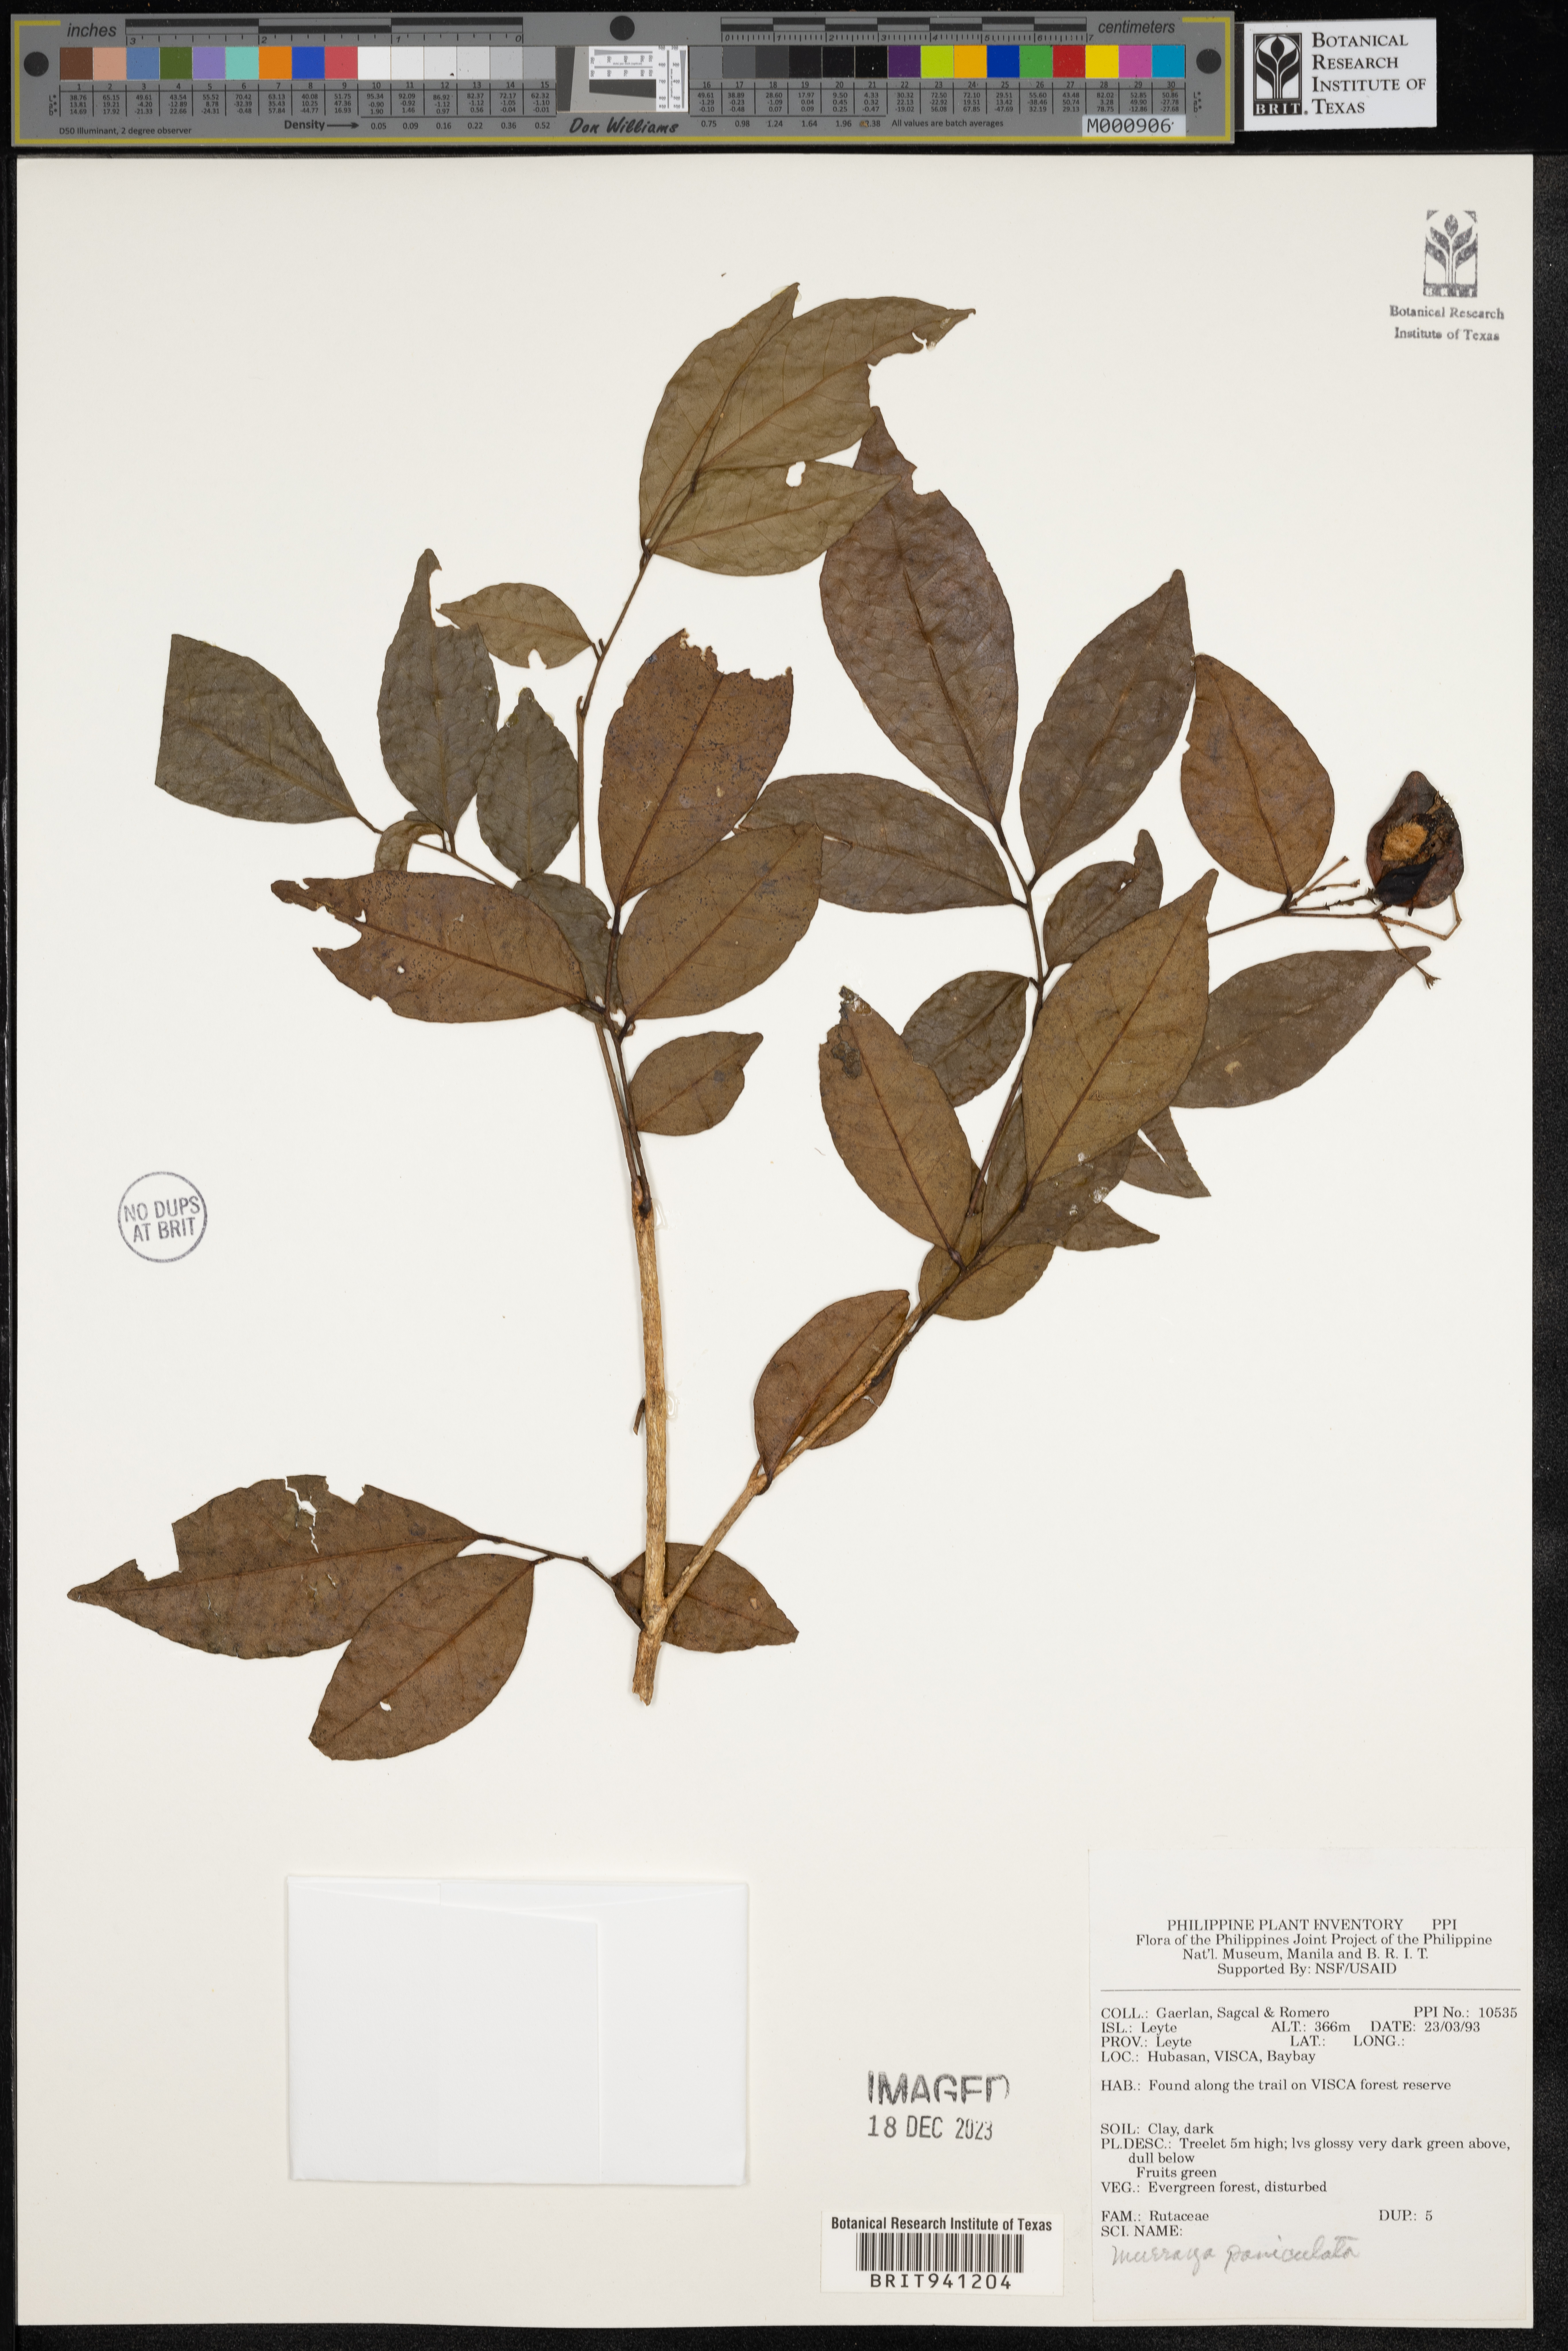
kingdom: Plantae
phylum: Tracheophyta
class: Magnoliopsida
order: Sapindales
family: Rutaceae
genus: Murraya
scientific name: Murraya
